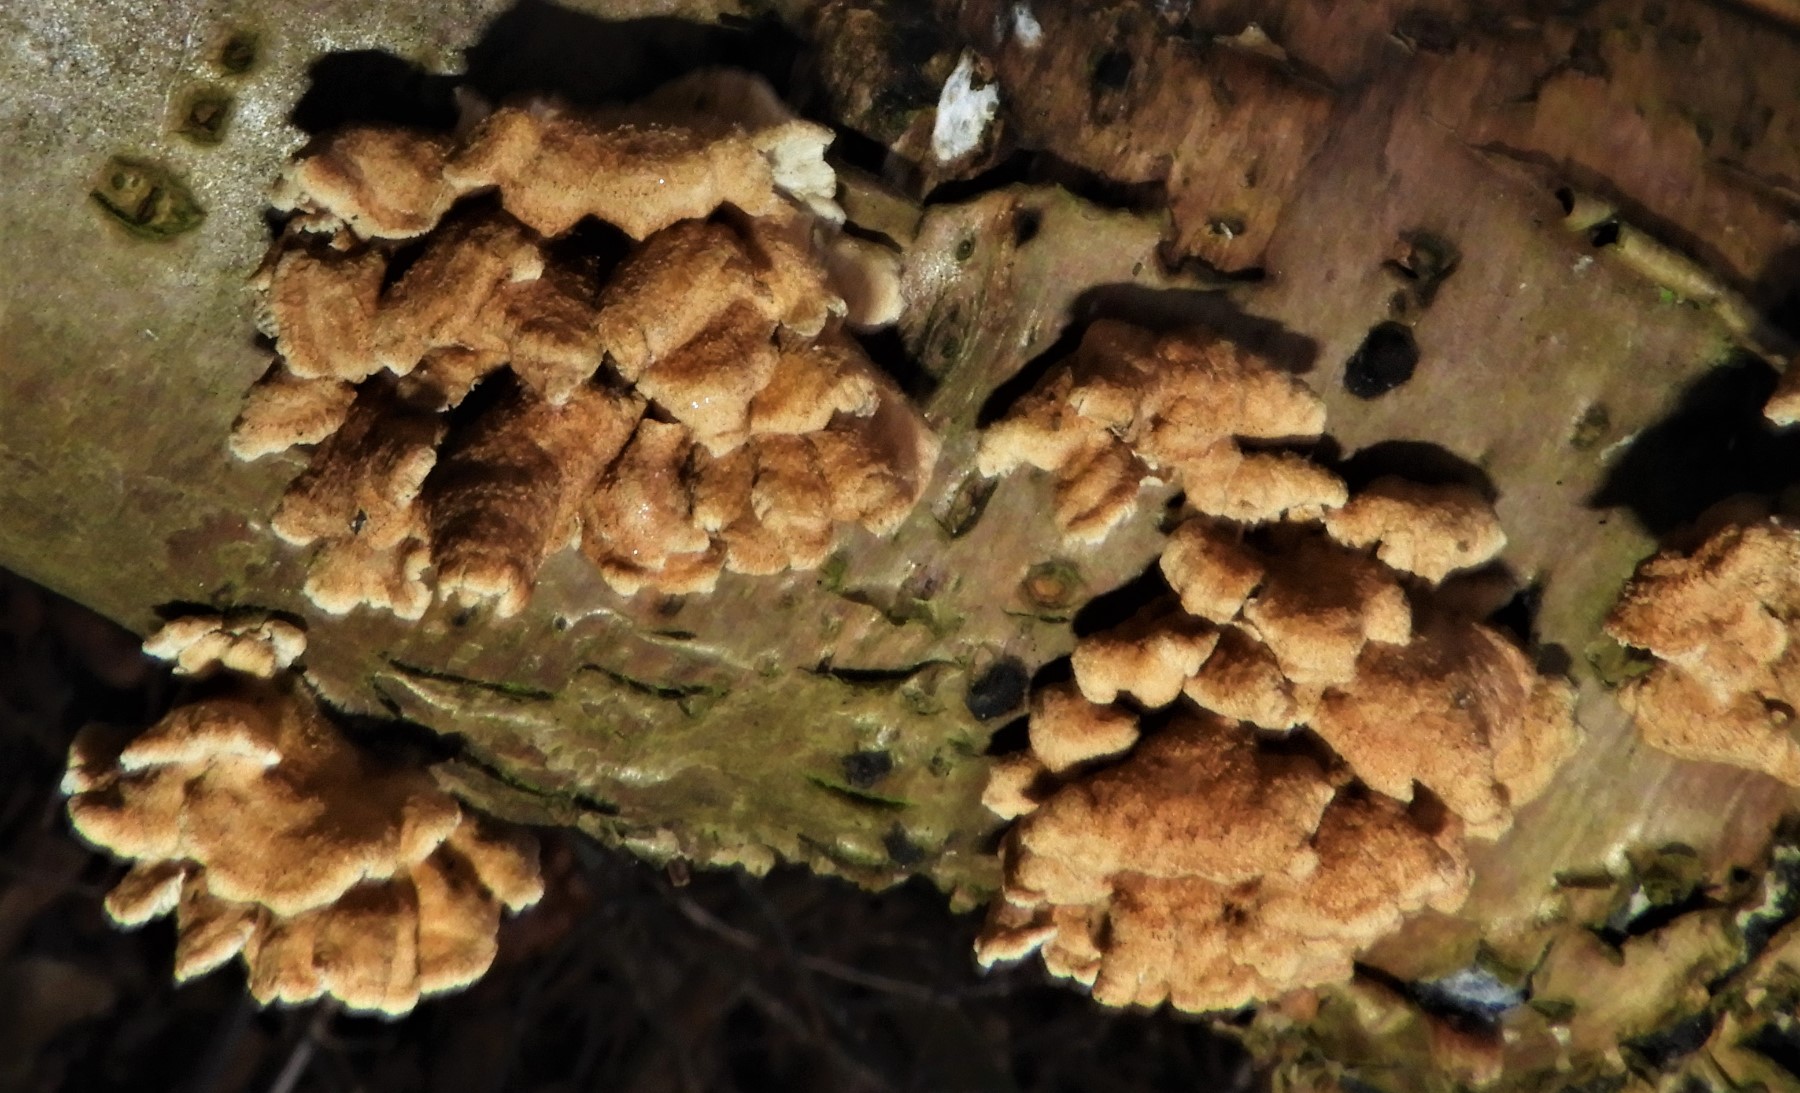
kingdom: Fungi
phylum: Basidiomycota
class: Agaricomycetes
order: Amylocorticiales
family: Amylocorticiaceae
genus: Plicaturopsis
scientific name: Plicaturopsis crispa
